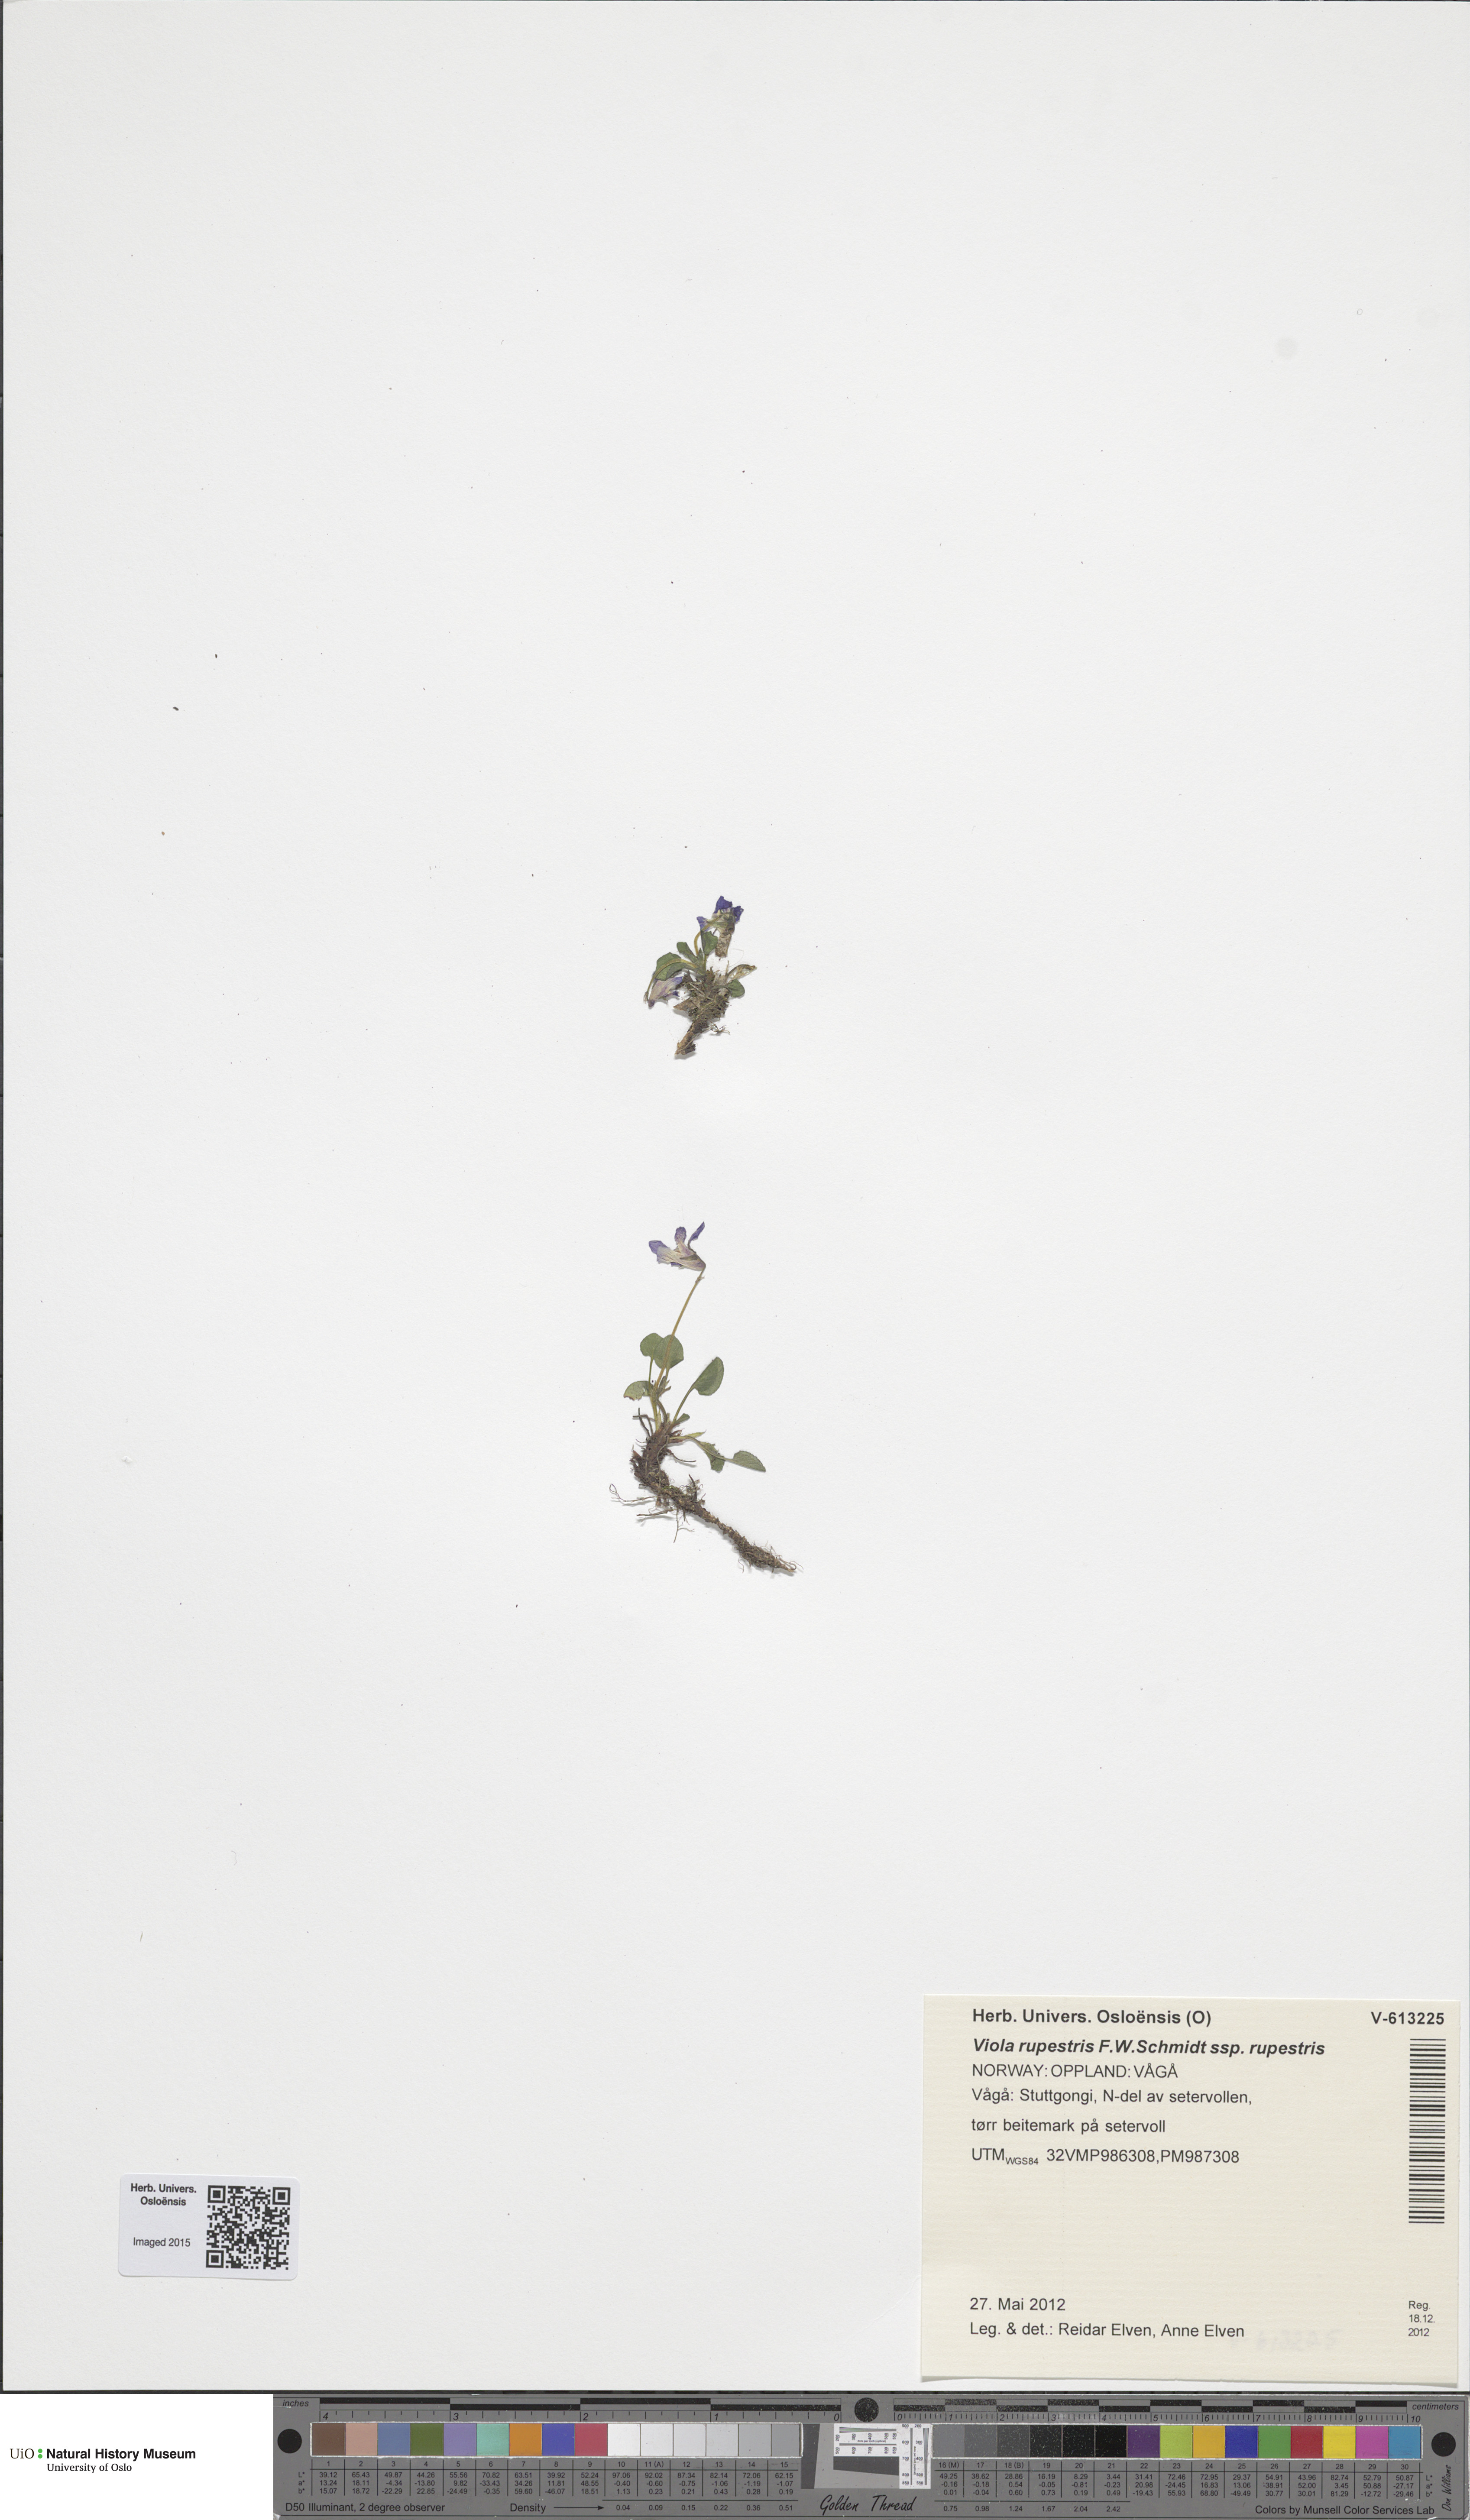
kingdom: Plantae
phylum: Tracheophyta
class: Magnoliopsida
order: Malpighiales
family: Violaceae
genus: Viola
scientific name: Viola rupestris
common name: Teesdale violet
